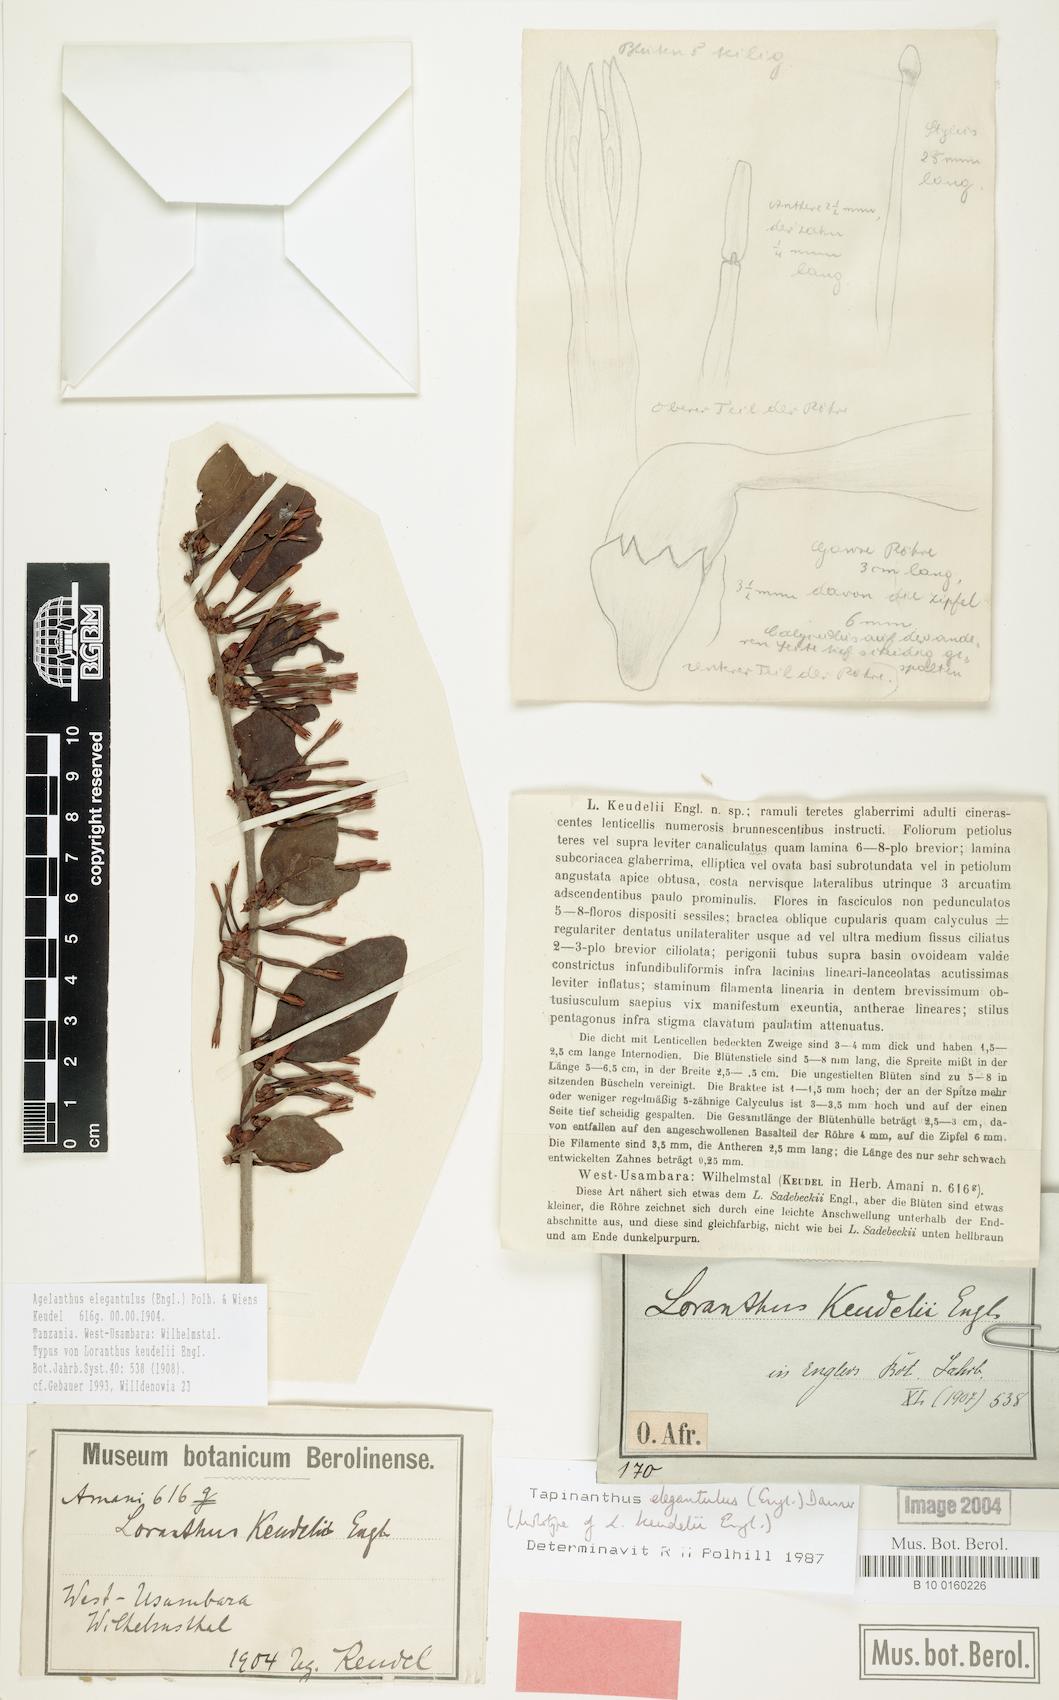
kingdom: Plantae
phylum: Tracheophyta
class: Magnoliopsida
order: Santalales
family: Loranthaceae
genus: Loranthella
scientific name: Loranthella kilimandscharica
